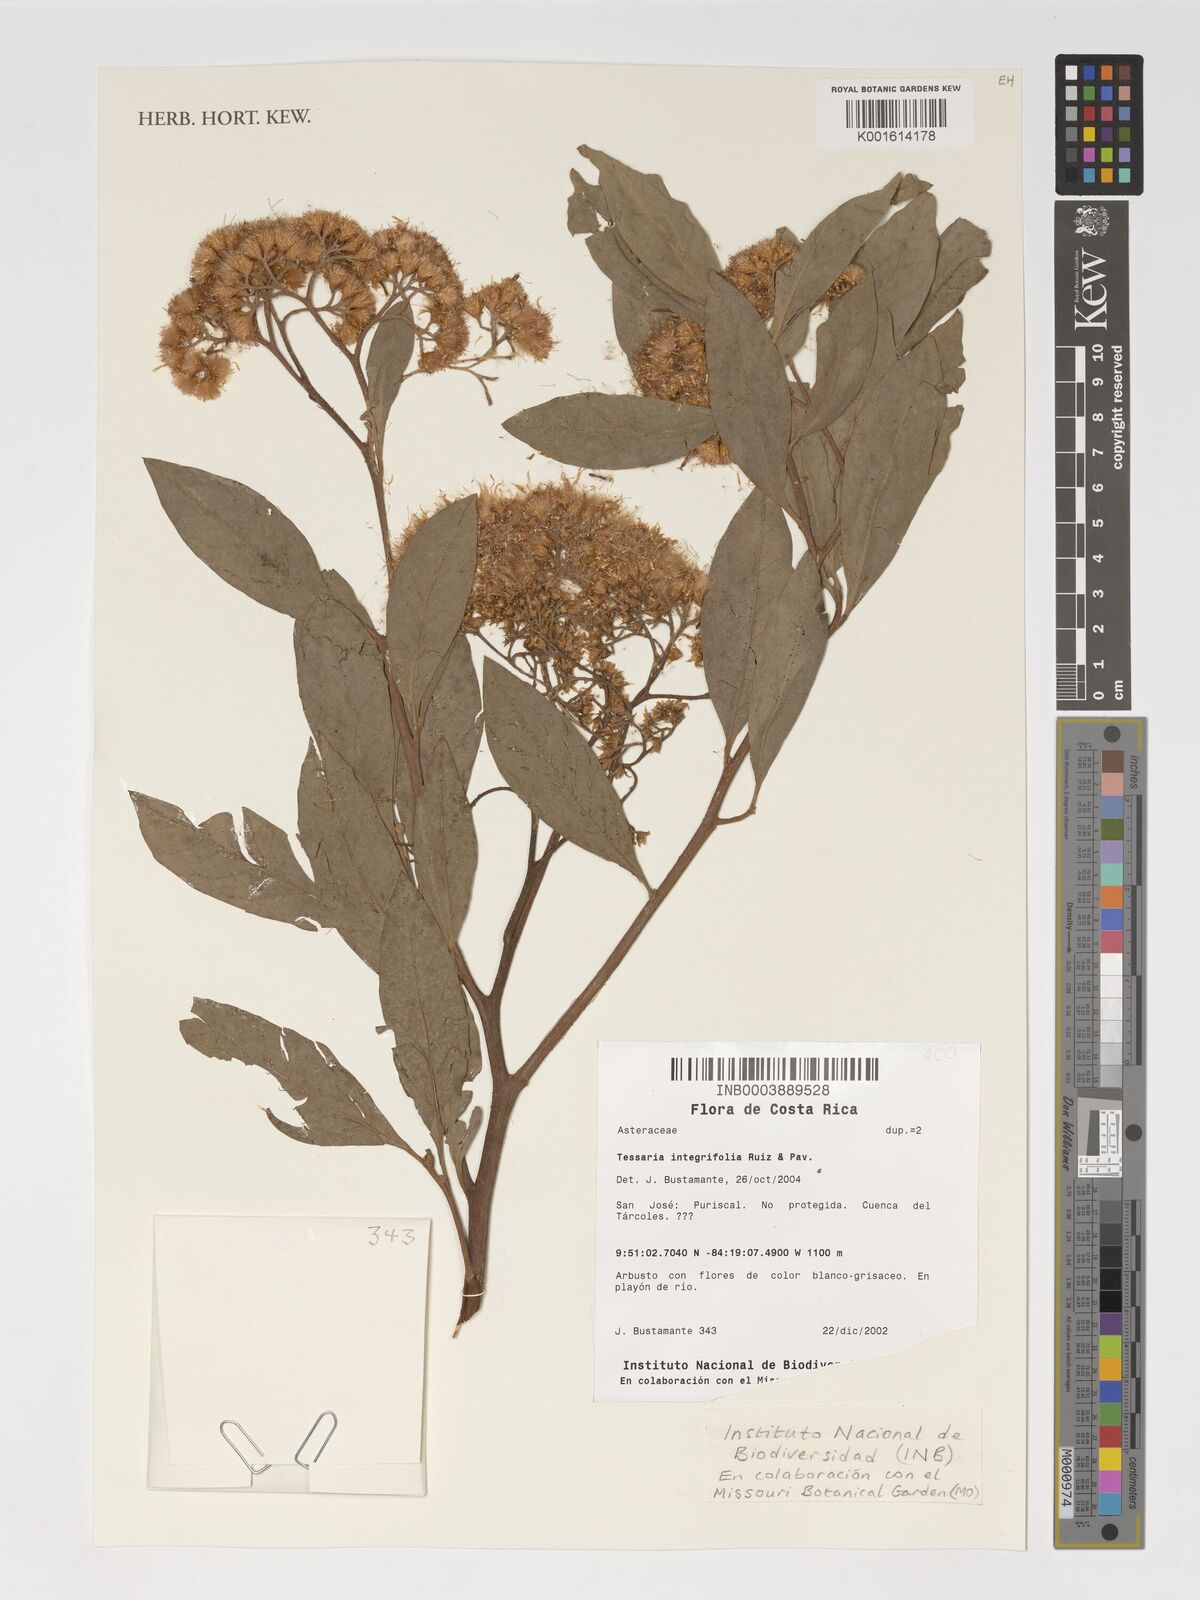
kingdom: Plantae
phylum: Tracheophyta
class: Magnoliopsida
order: Asterales
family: Asteraceae
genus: Tessaria
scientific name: Tessaria integrifolia
